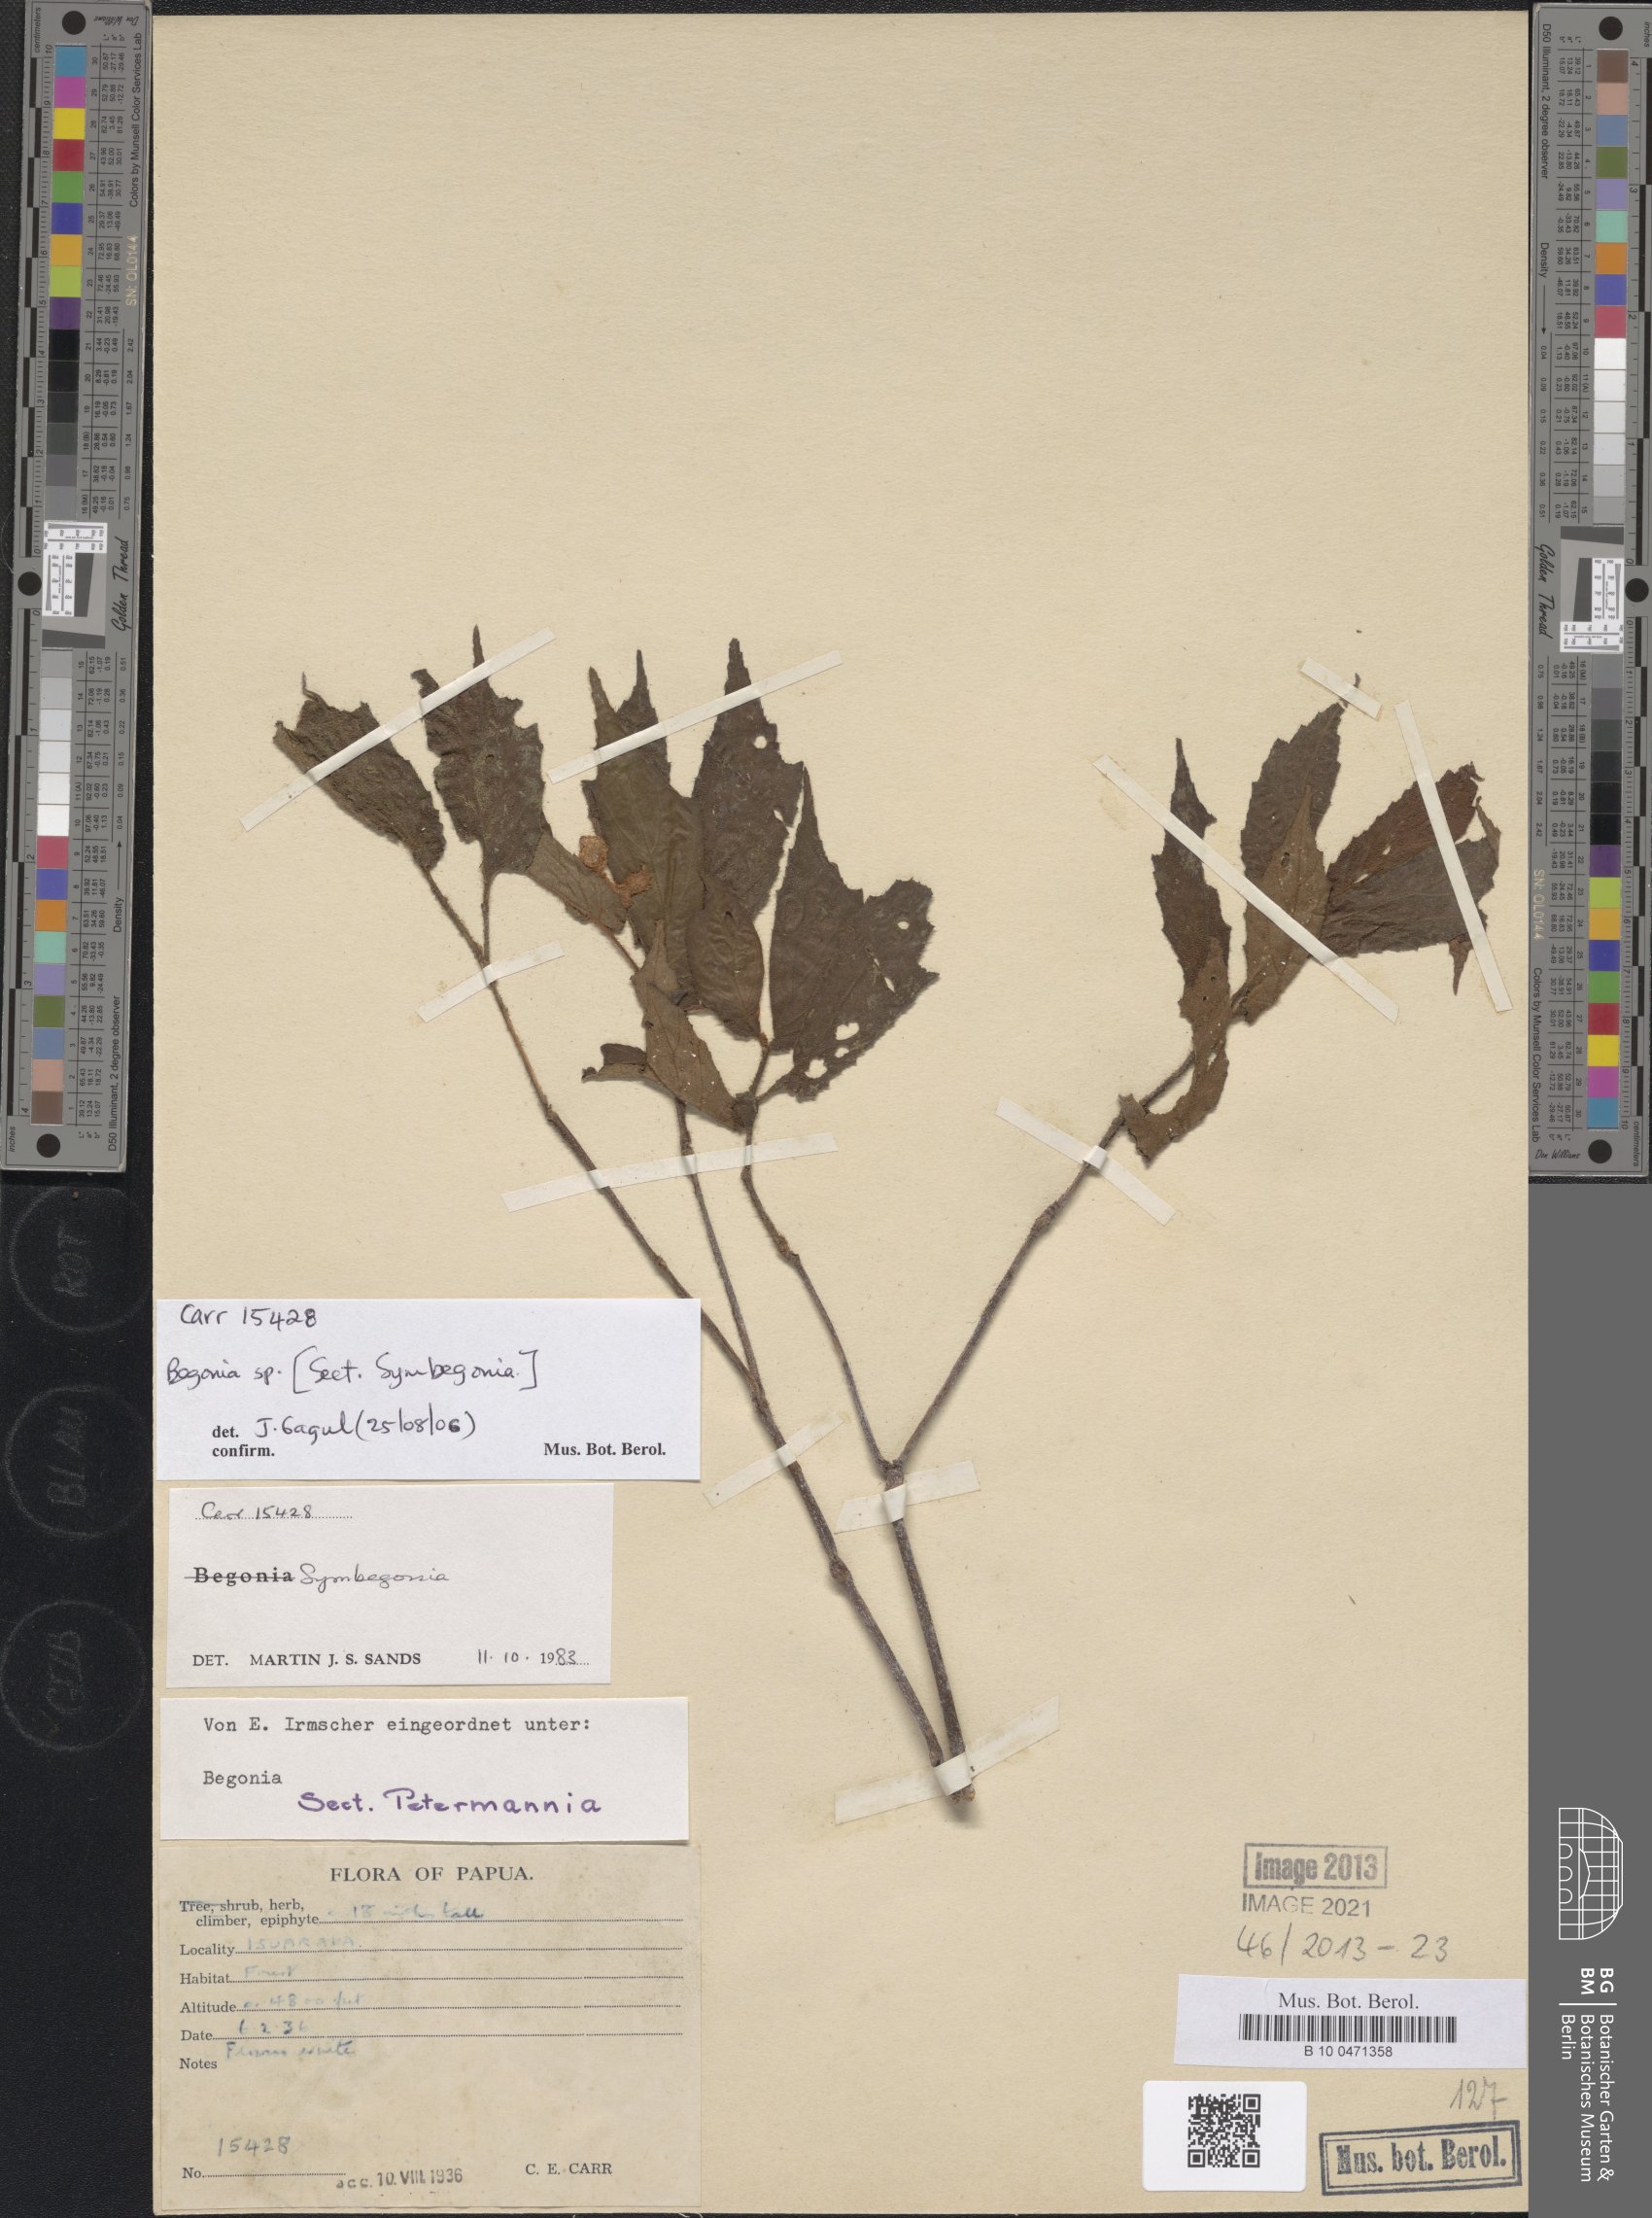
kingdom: Plantae
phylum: Tracheophyta
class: Magnoliopsida
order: Cucurbitales
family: Begoniaceae
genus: Begonia
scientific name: Begonia
